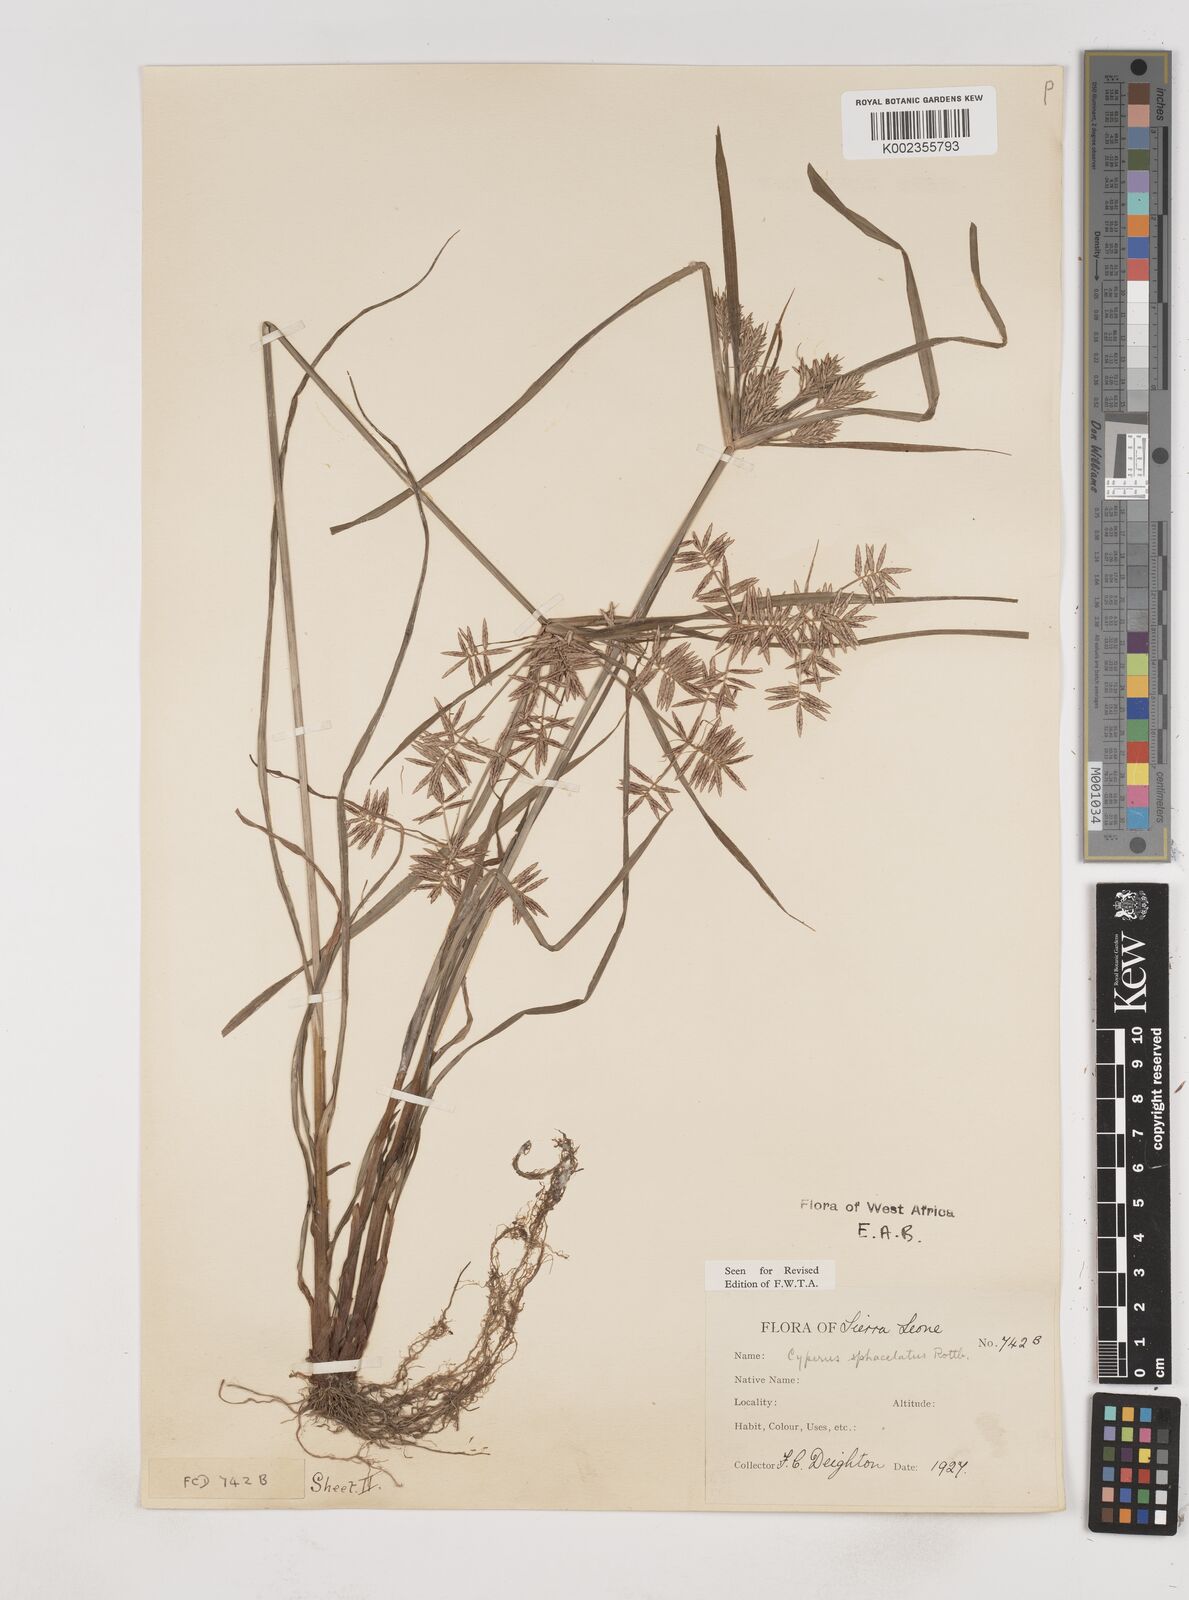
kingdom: Plantae
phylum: Tracheophyta
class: Liliopsida
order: Poales
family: Cyperaceae
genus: Cyperus
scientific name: Cyperus sphacelatus
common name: Roadside flatsedge
